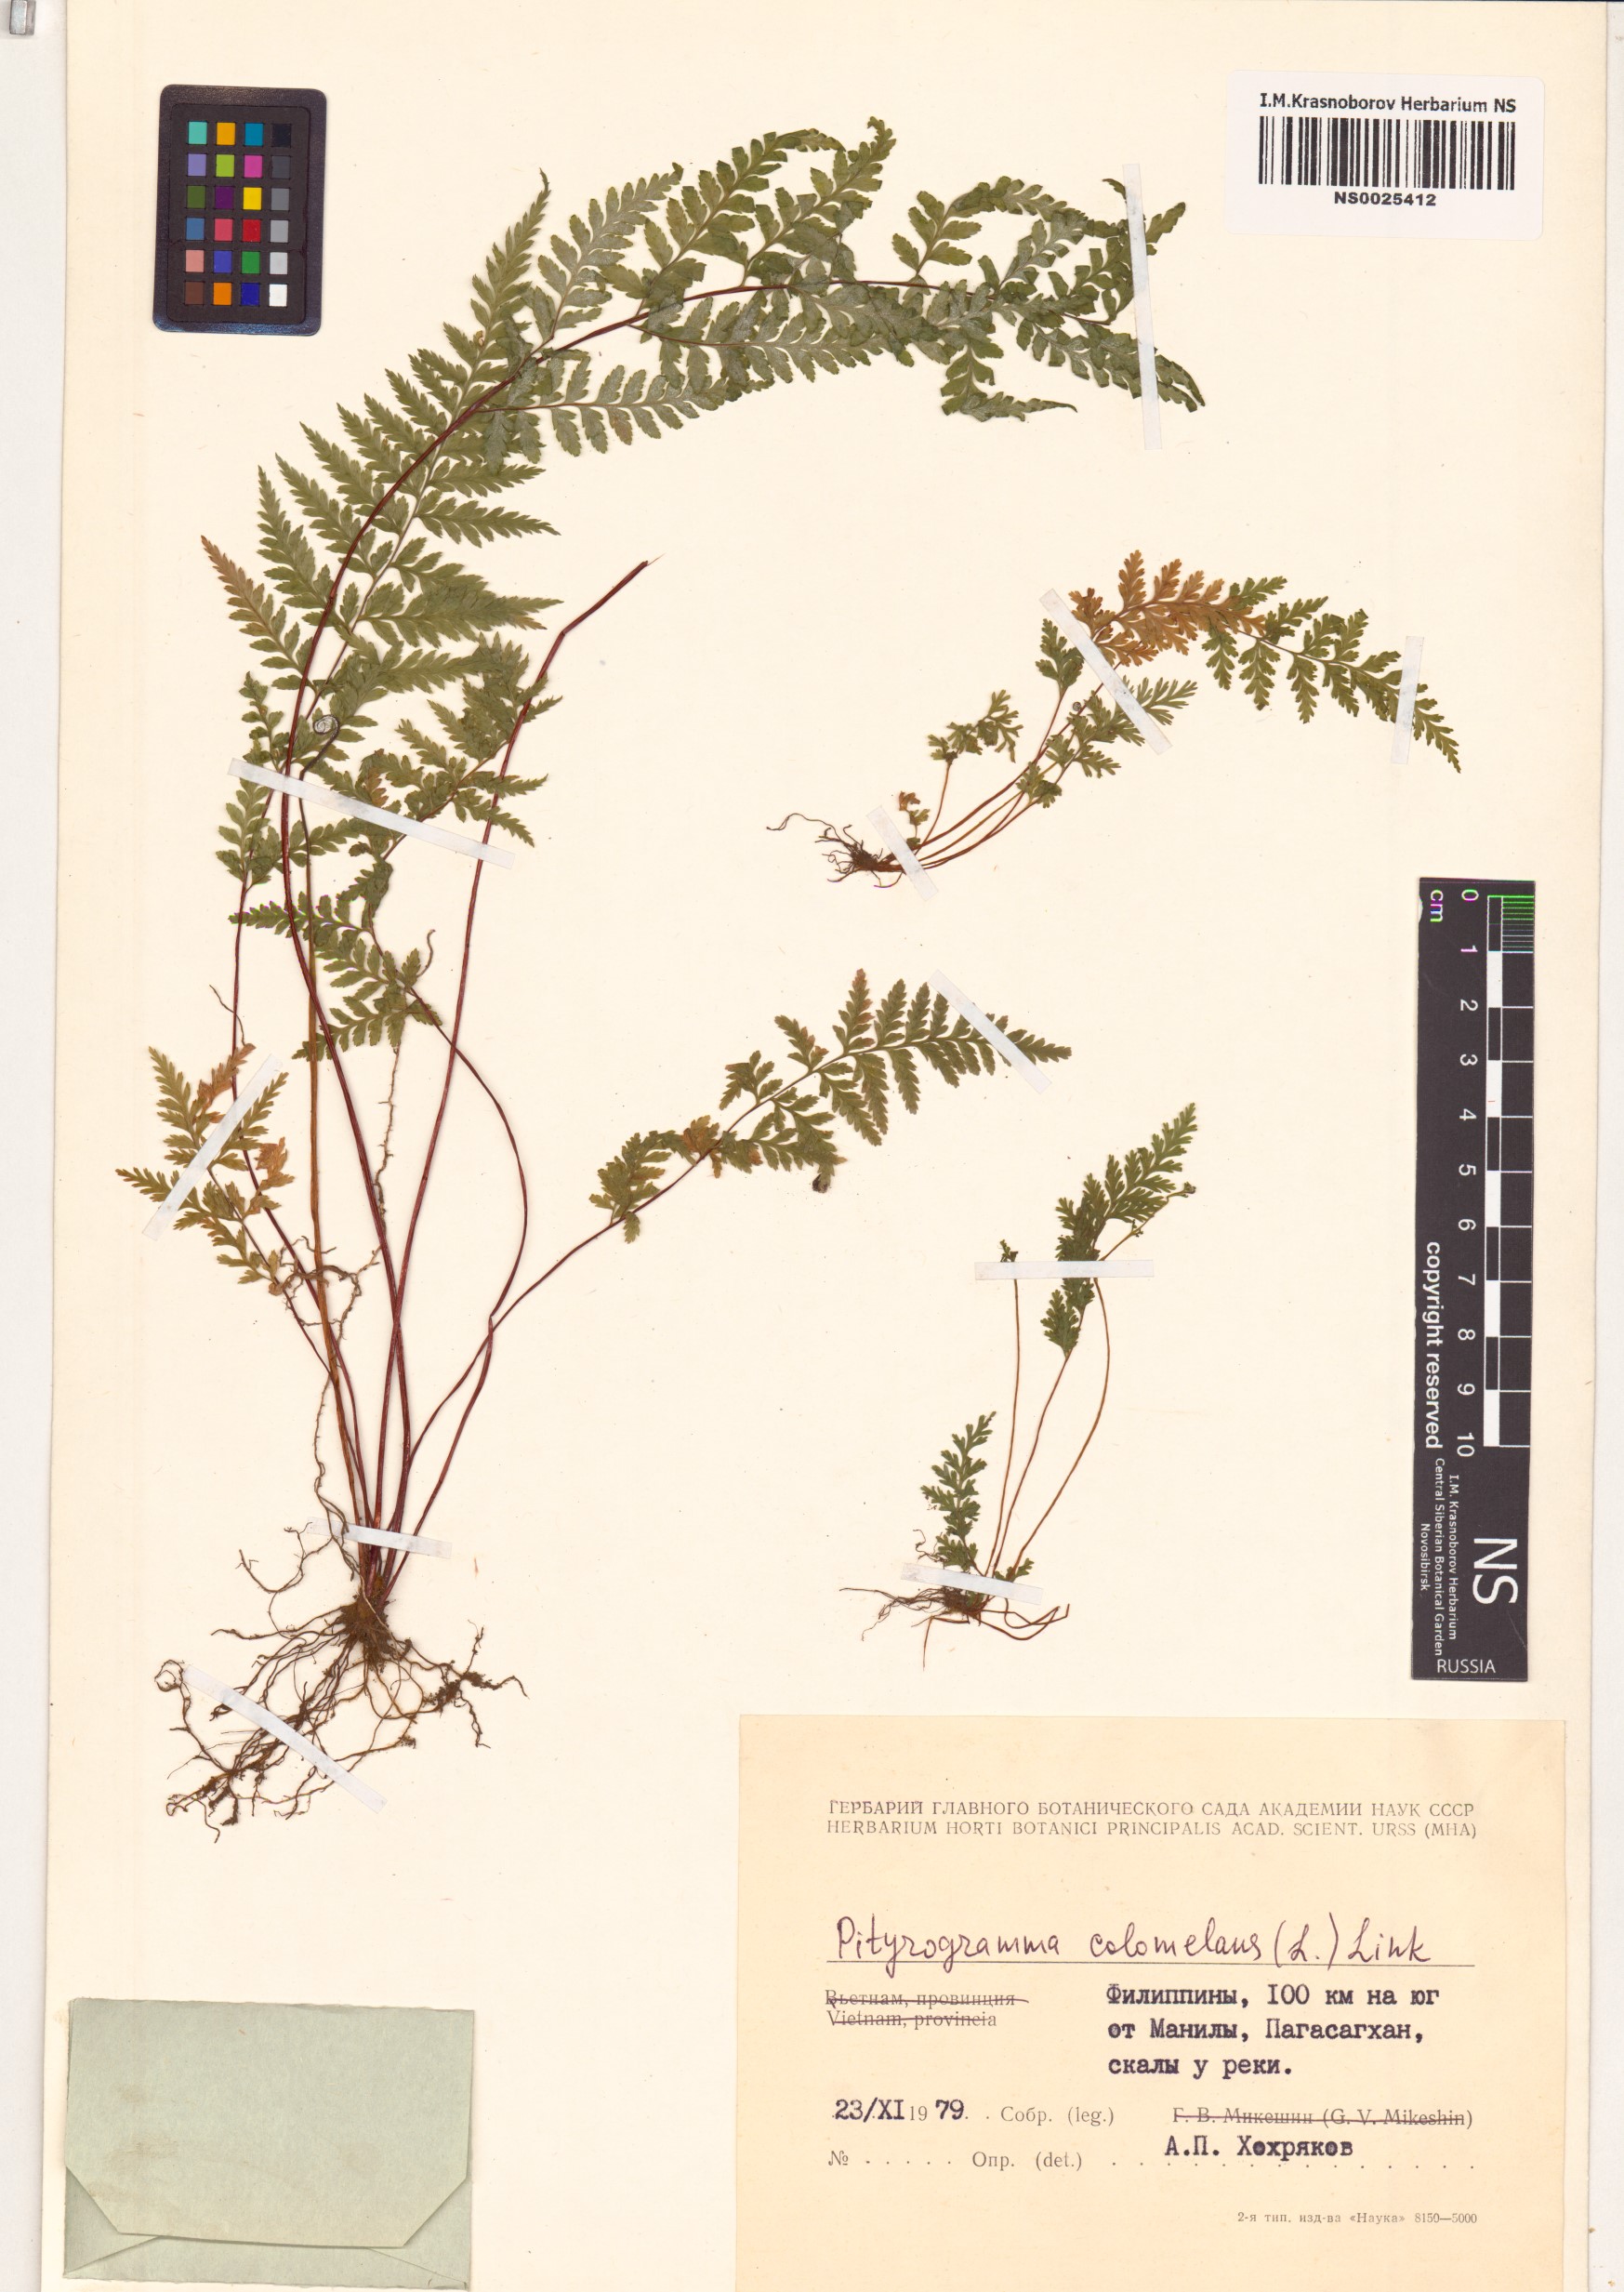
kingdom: Plantae
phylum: Tracheophyta
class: Polypodiopsida
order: Polypodiales
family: Pteridaceae
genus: Pityrogramma
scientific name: Pityrogramma calomelanos
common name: Dixie silverback fern
